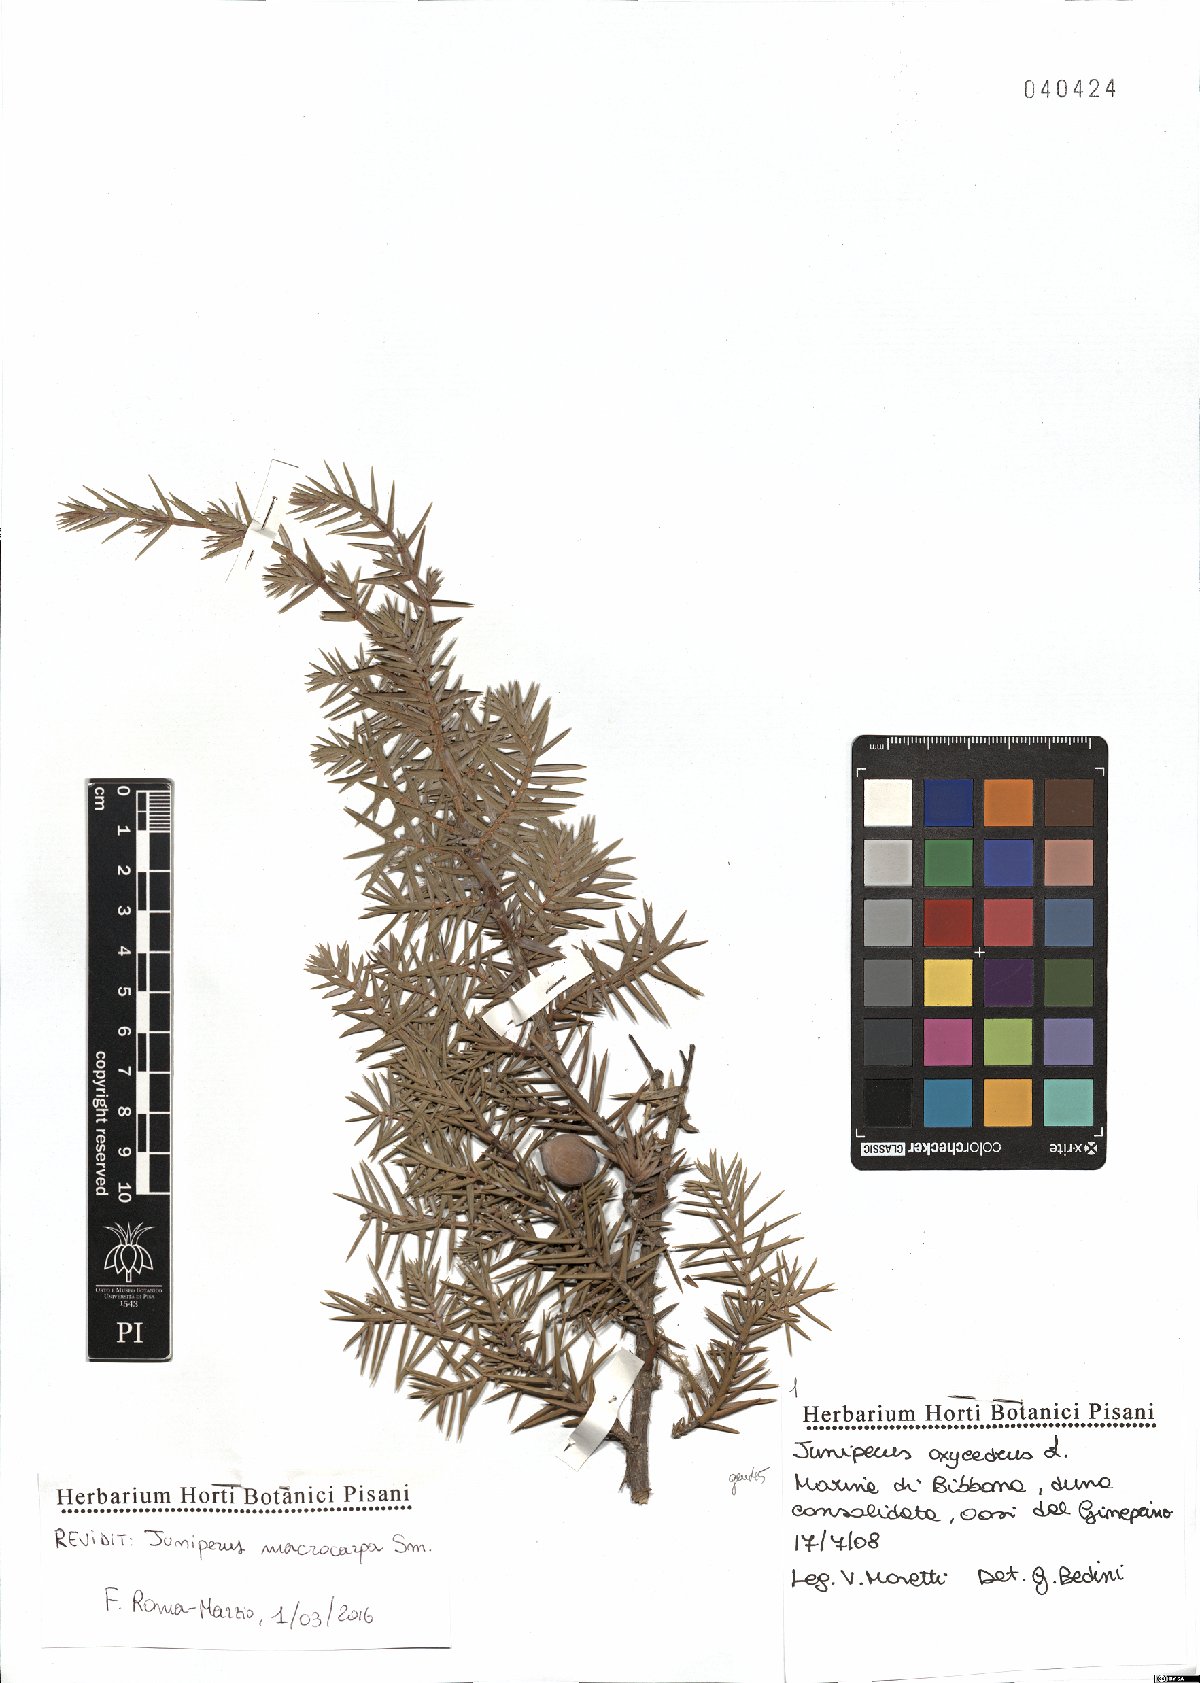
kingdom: Plantae
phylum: Tracheophyta
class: Pinopsida
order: Pinales
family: Cupressaceae
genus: Juniperus
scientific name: Juniperus oxycedrus
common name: Prickly juniper
